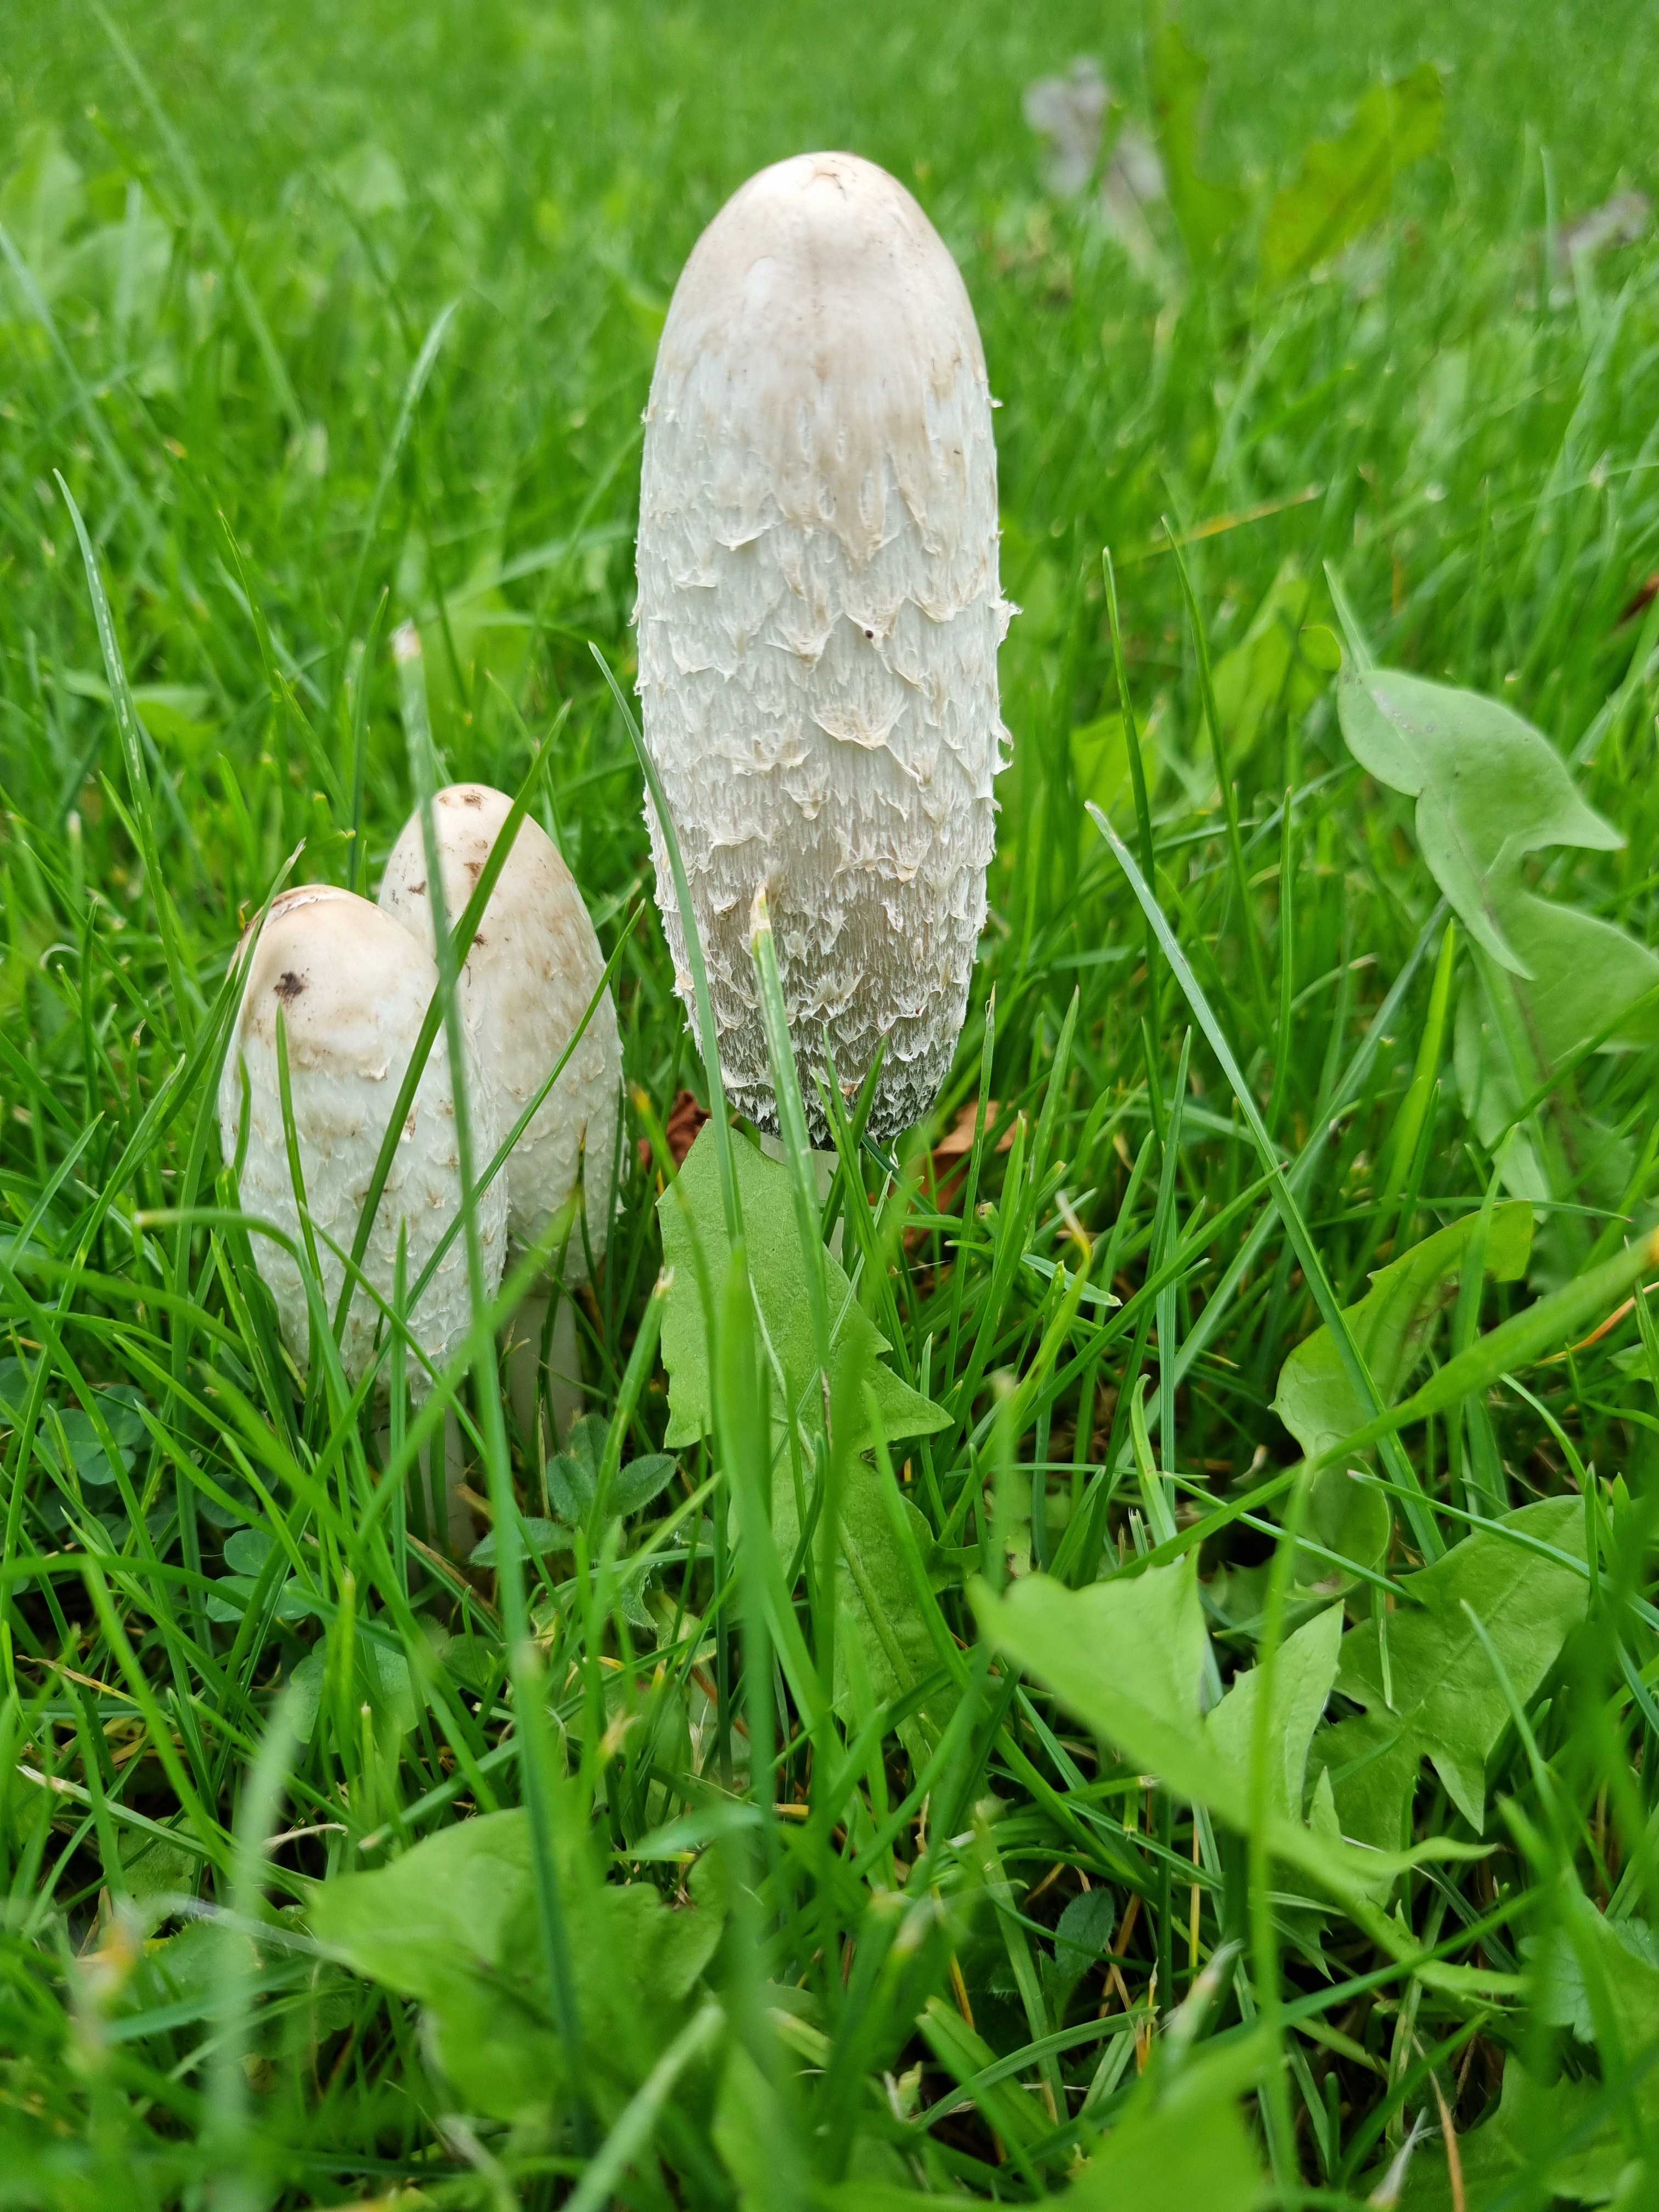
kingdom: Fungi
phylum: Basidiomycota
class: Agaricomycetes
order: Agaricales
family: Agaricaceae
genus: Coprinus
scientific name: Coprinus comatus
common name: stor parykhat
